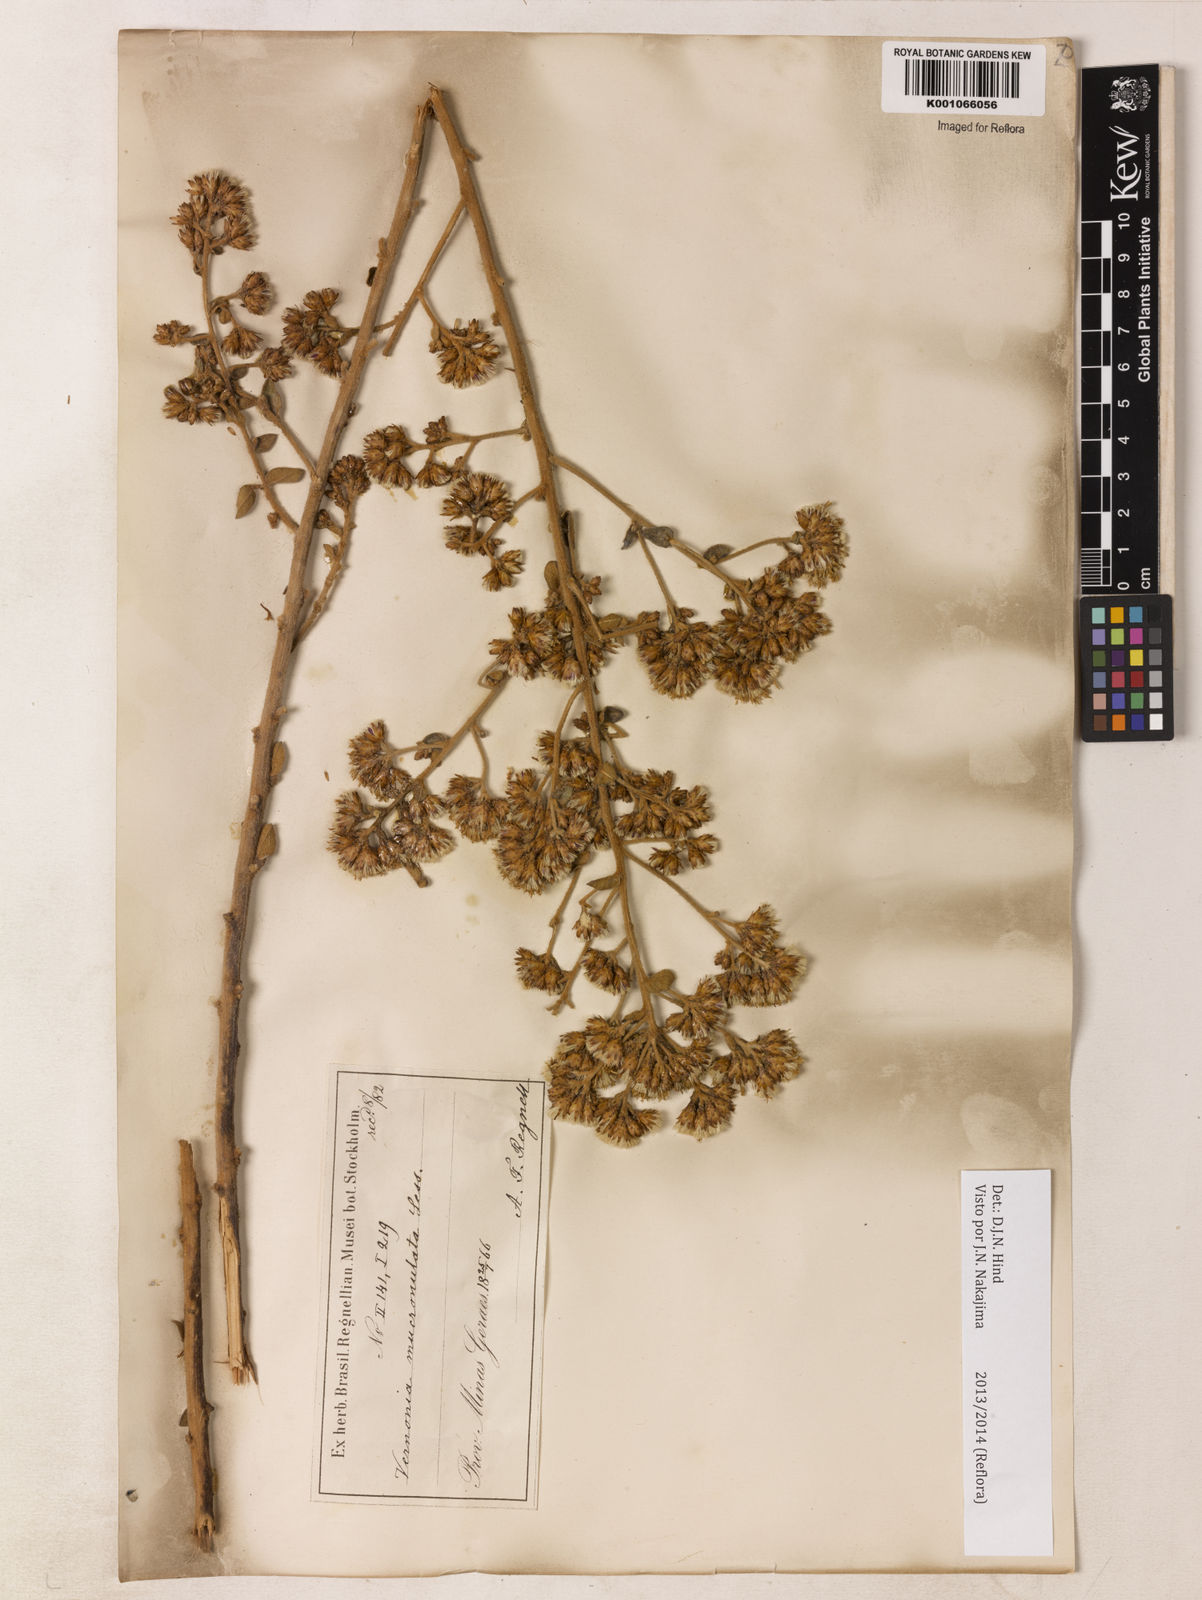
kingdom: Plantae
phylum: Tracheophyta
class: Magnoliopsida
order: Asterales
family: Asteraceae
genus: Vernonanthura
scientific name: Vernonanthura mucronulata
